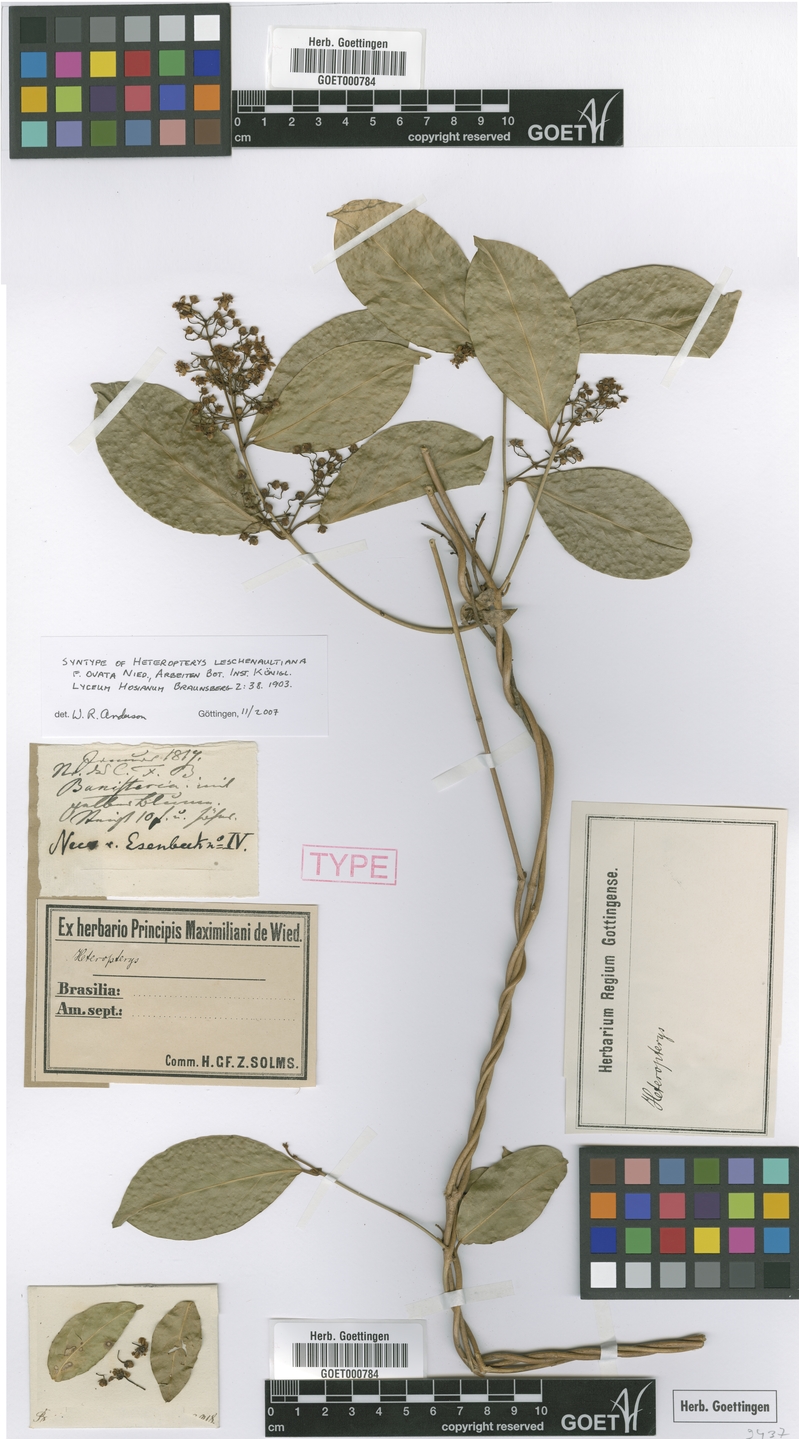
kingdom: Plantae
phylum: Tracheophyta
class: Magnoliopsida
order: Malpighiales
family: Malpighiaceae
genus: Heteropterys
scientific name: Heteropterys leschenaultiana
